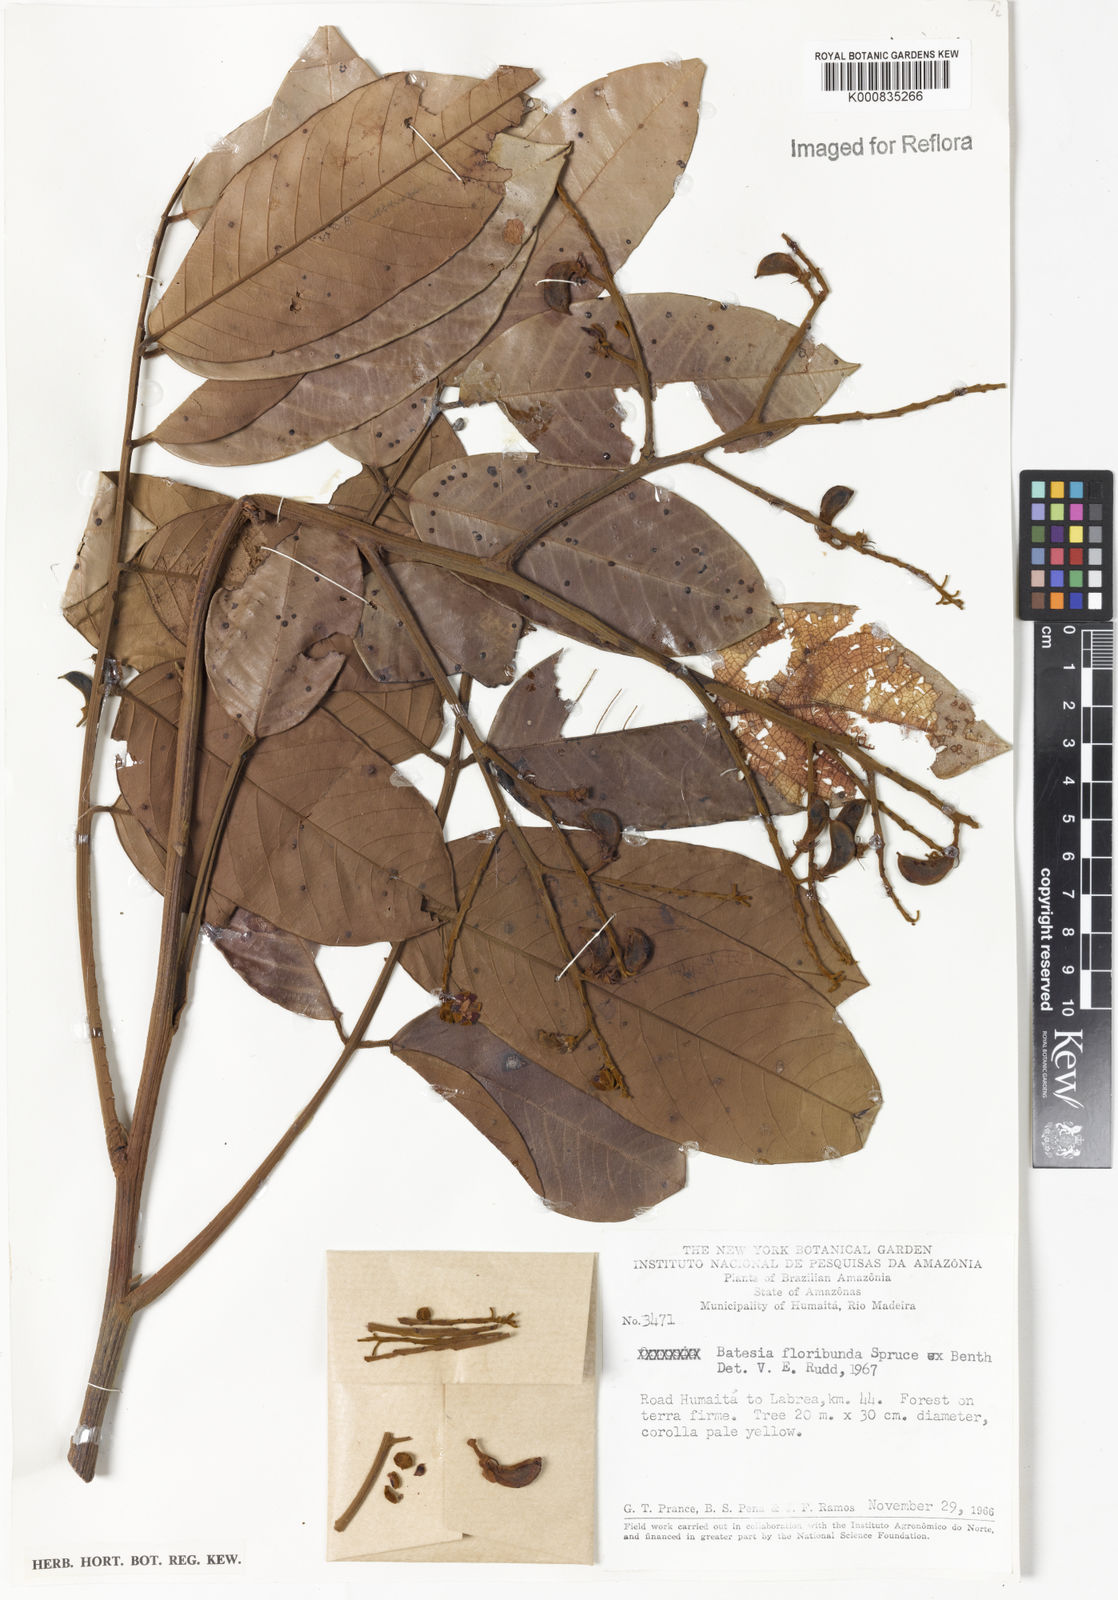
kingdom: Plantae
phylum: Tracheophyta
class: Magnoliopsida
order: Fabales
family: Fabaceae
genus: Batesia
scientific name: Batesia floribunda
